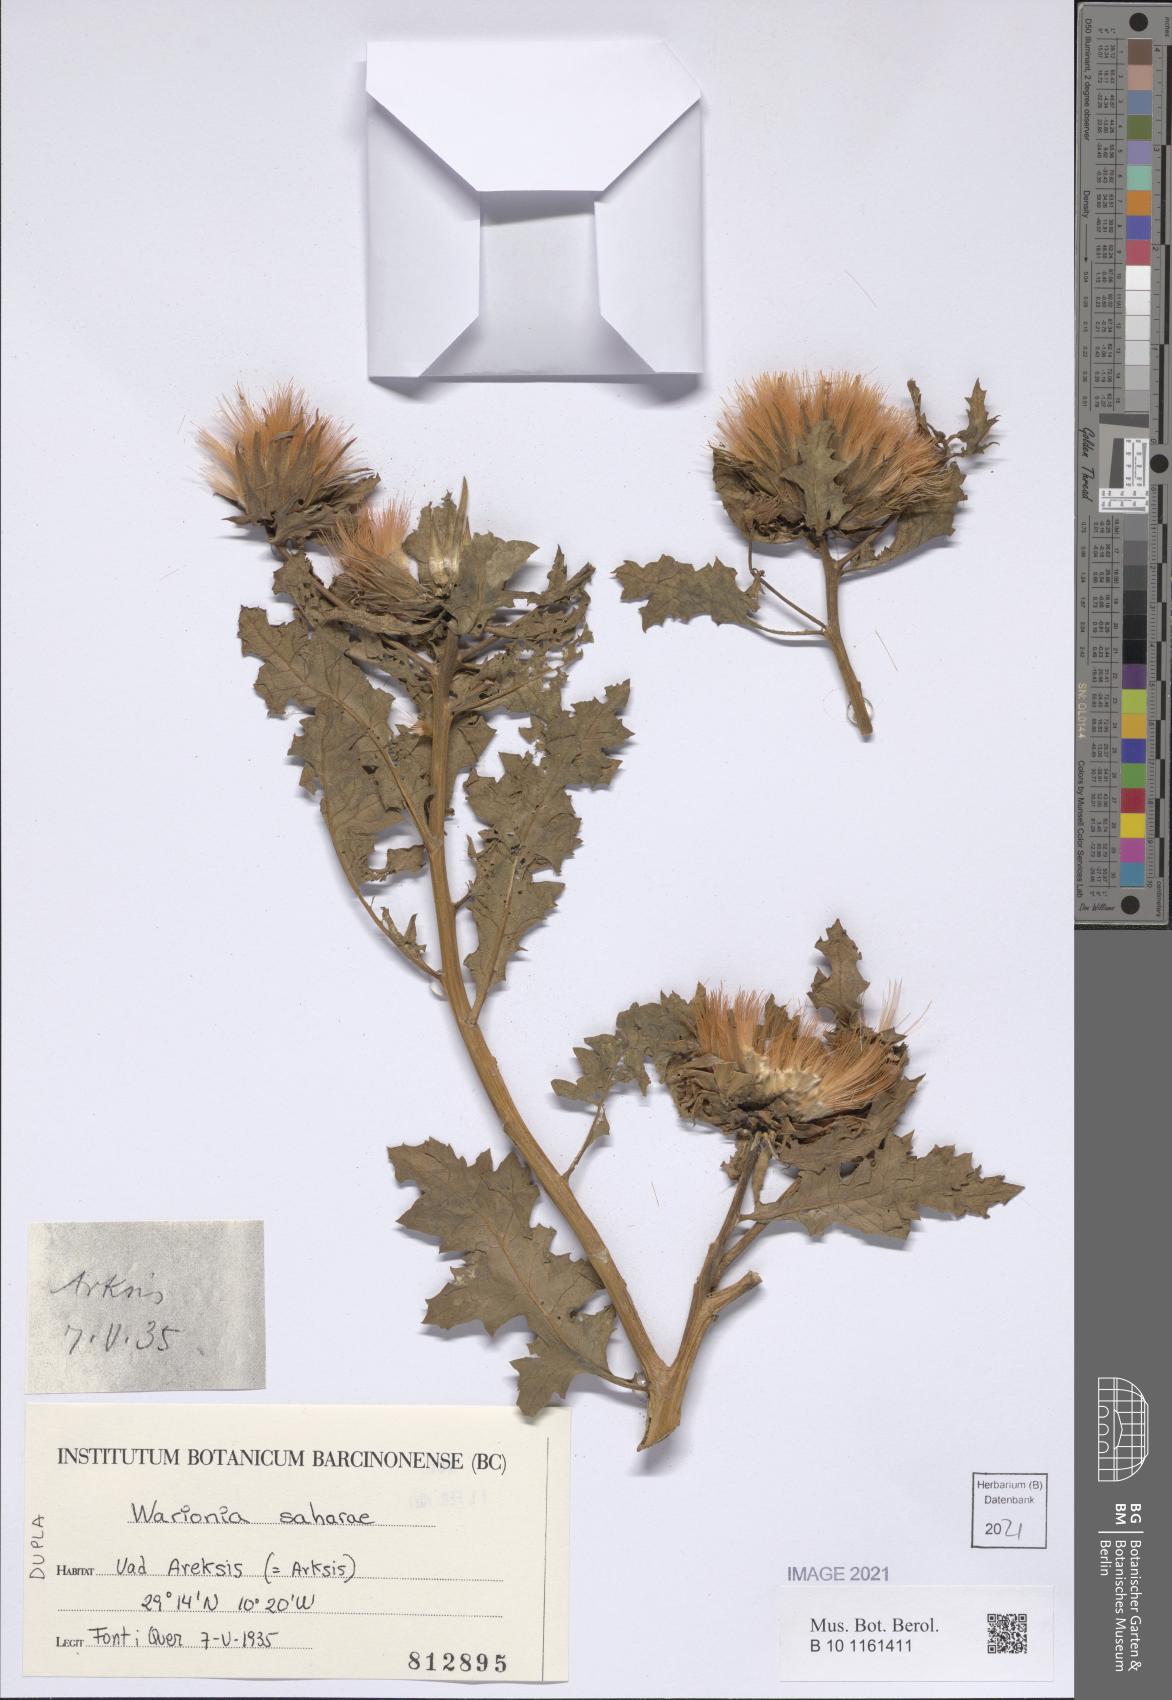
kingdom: Plantae
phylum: Tracheophyta
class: Magnoliopsida
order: Asterales
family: Asteraceae
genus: Warionia
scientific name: Warionia saharae
